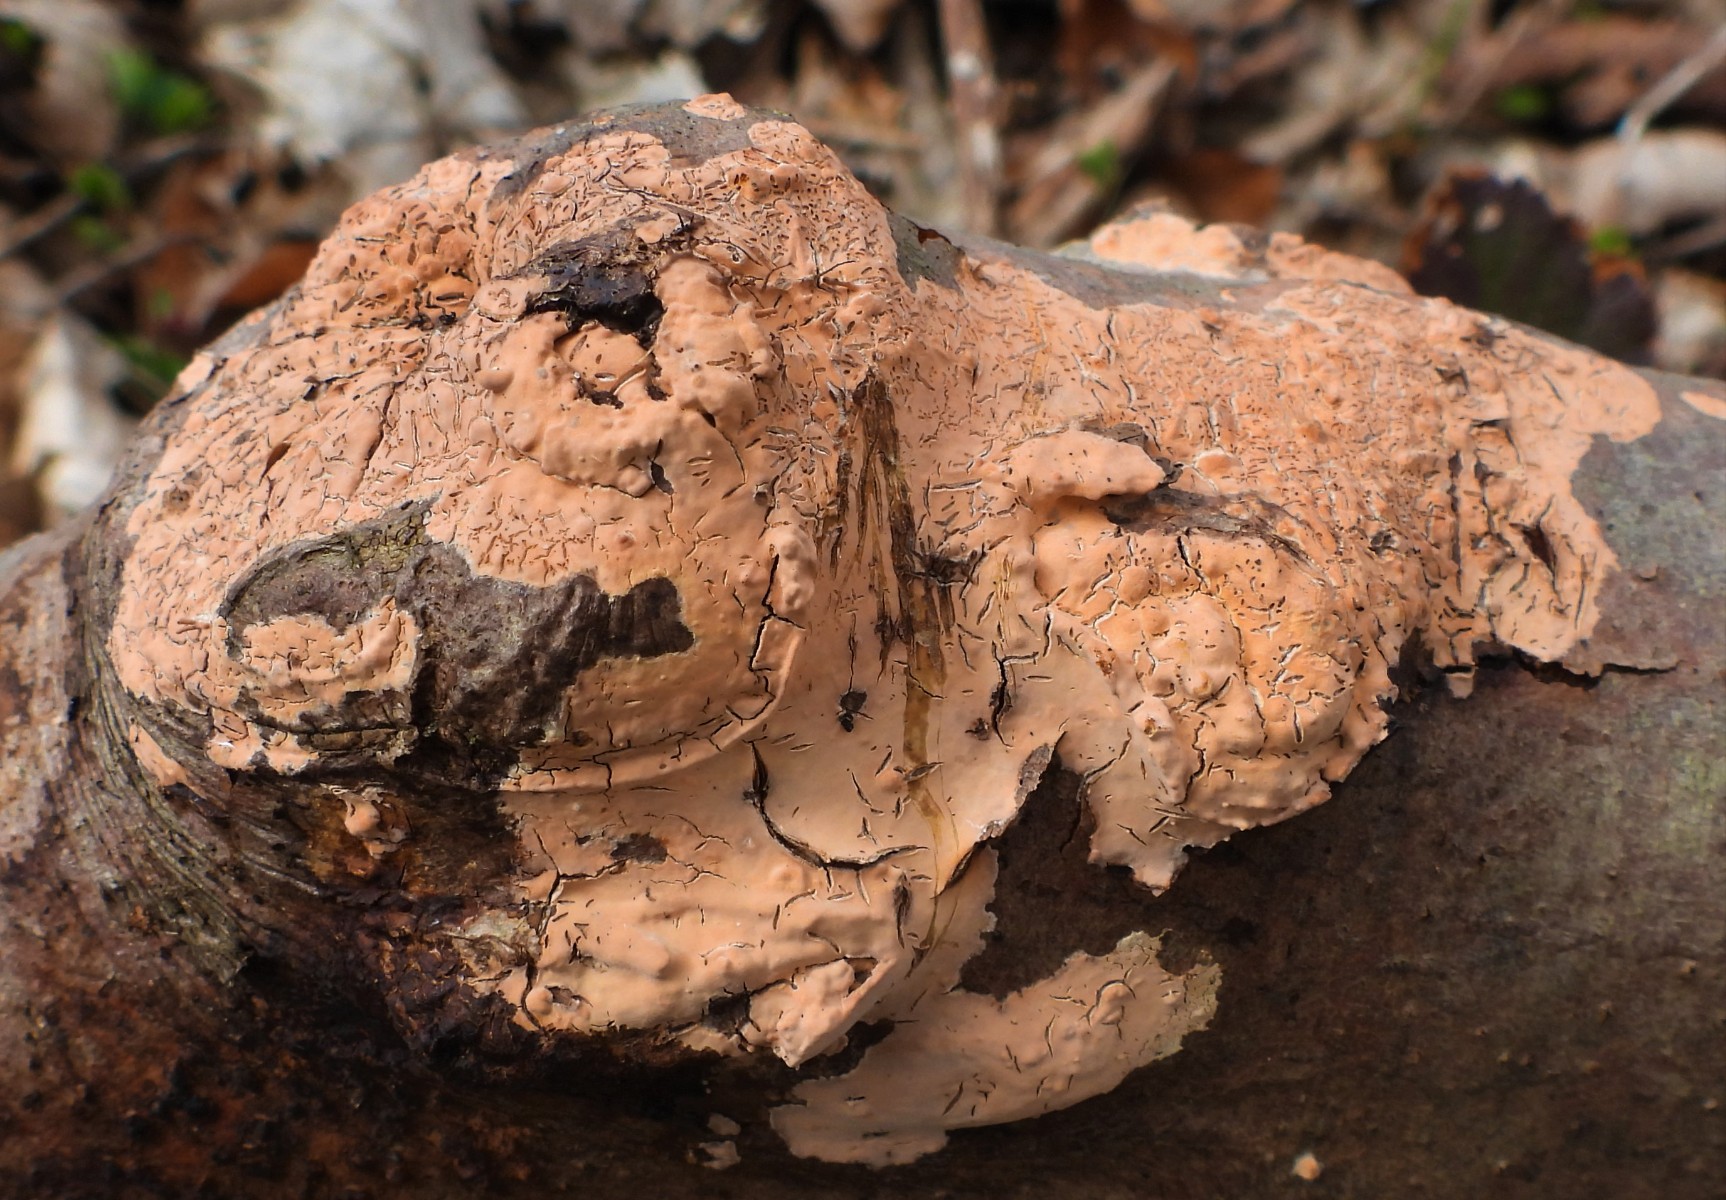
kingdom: Fungi
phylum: Basidiomycota
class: Agaricomycetes
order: Russulales
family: Peniophoraceae
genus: Peniophora
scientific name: Peniophora incarnata
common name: laksefarvet voksskind
